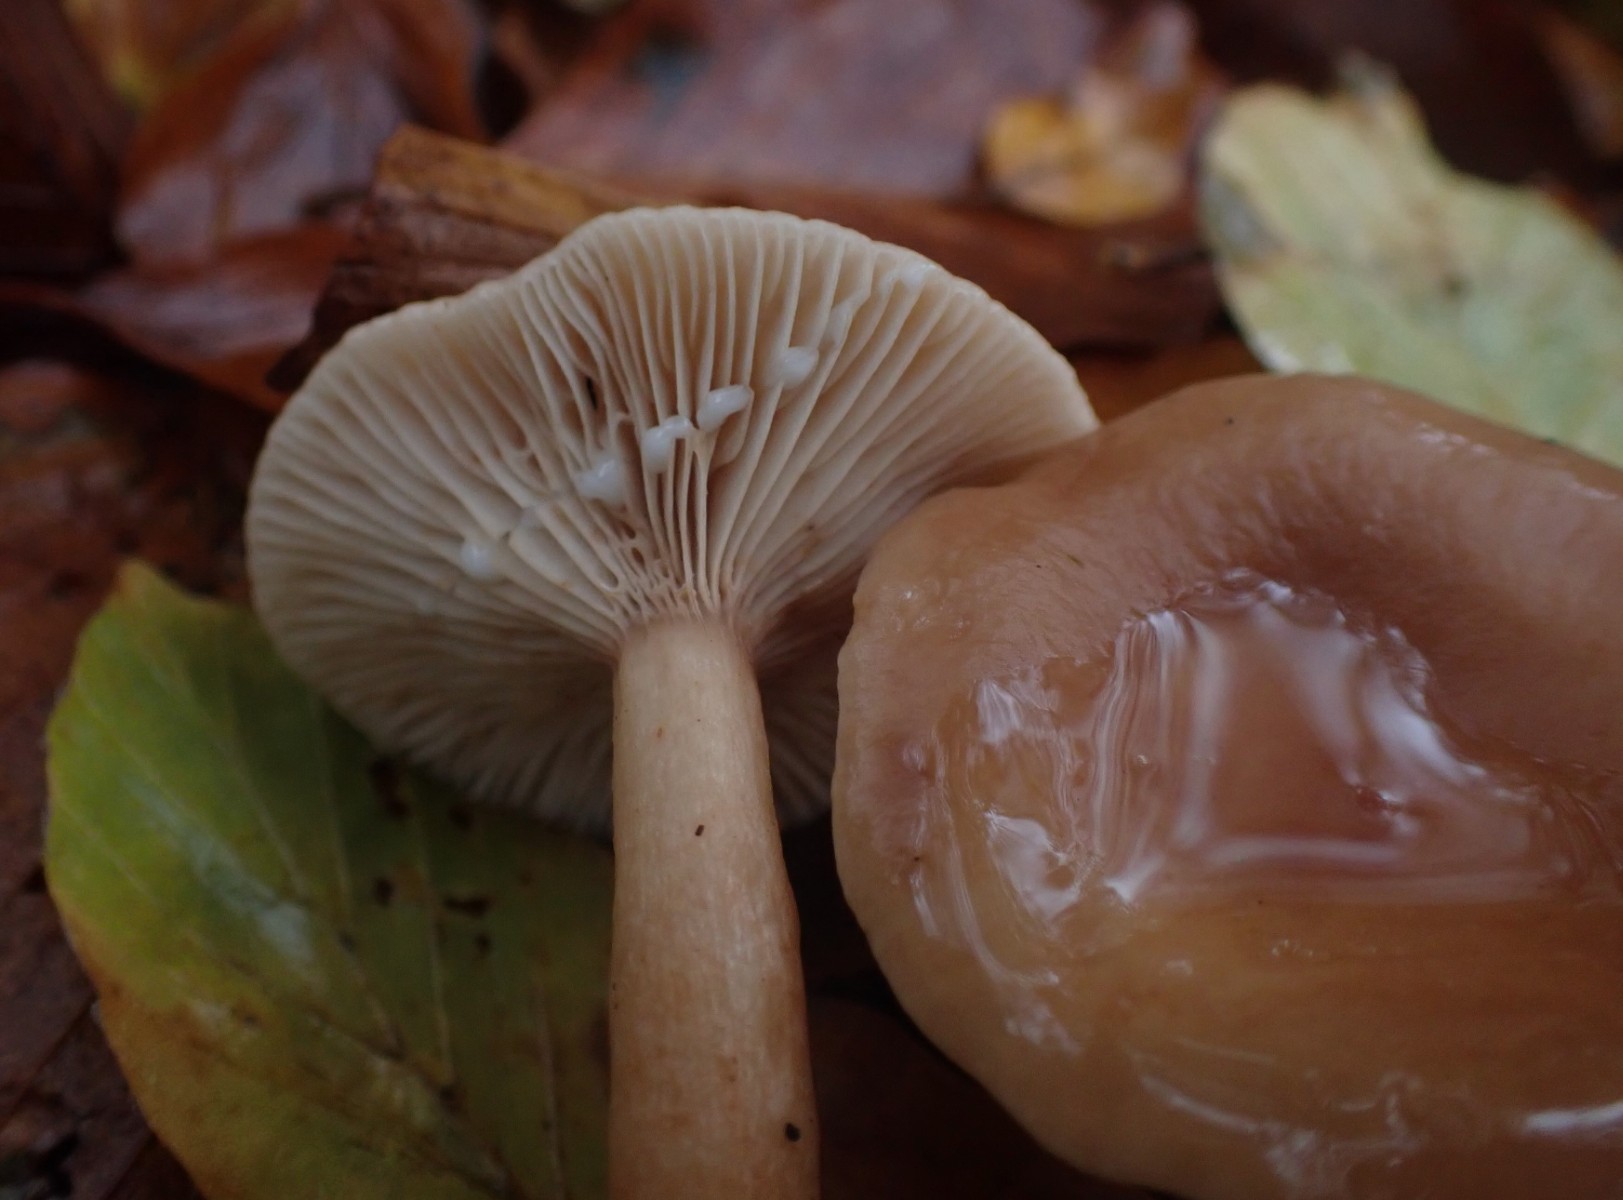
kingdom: Fungi
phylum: Basidiomycota
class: Agaricomycetes
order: Russulales
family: Russulaceae
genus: Lactarius
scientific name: Lactarius subdulcis
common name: sødlig mælkehat
